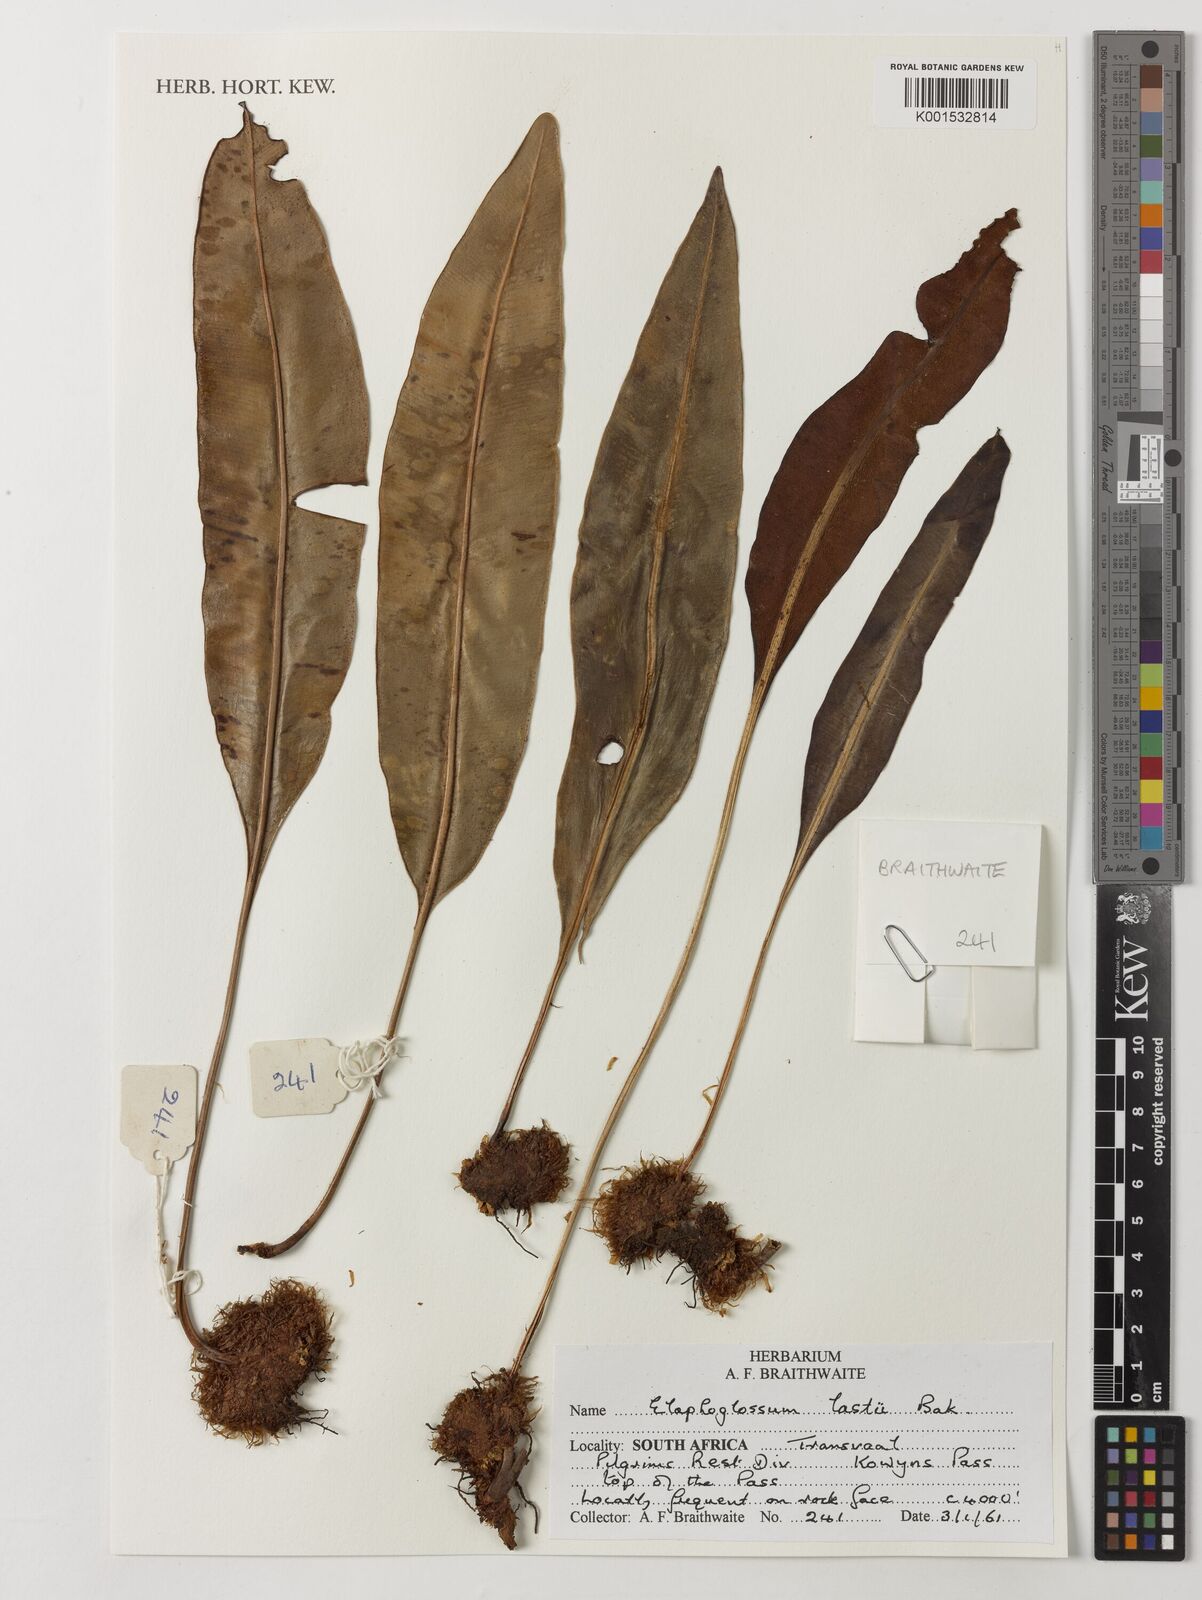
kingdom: Plantae
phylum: Tracheophyta
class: Polypodiopsida
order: Polypodiales
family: Dryopteridaceae
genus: Elaphoglossum
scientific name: Elaphoglossum lastii
